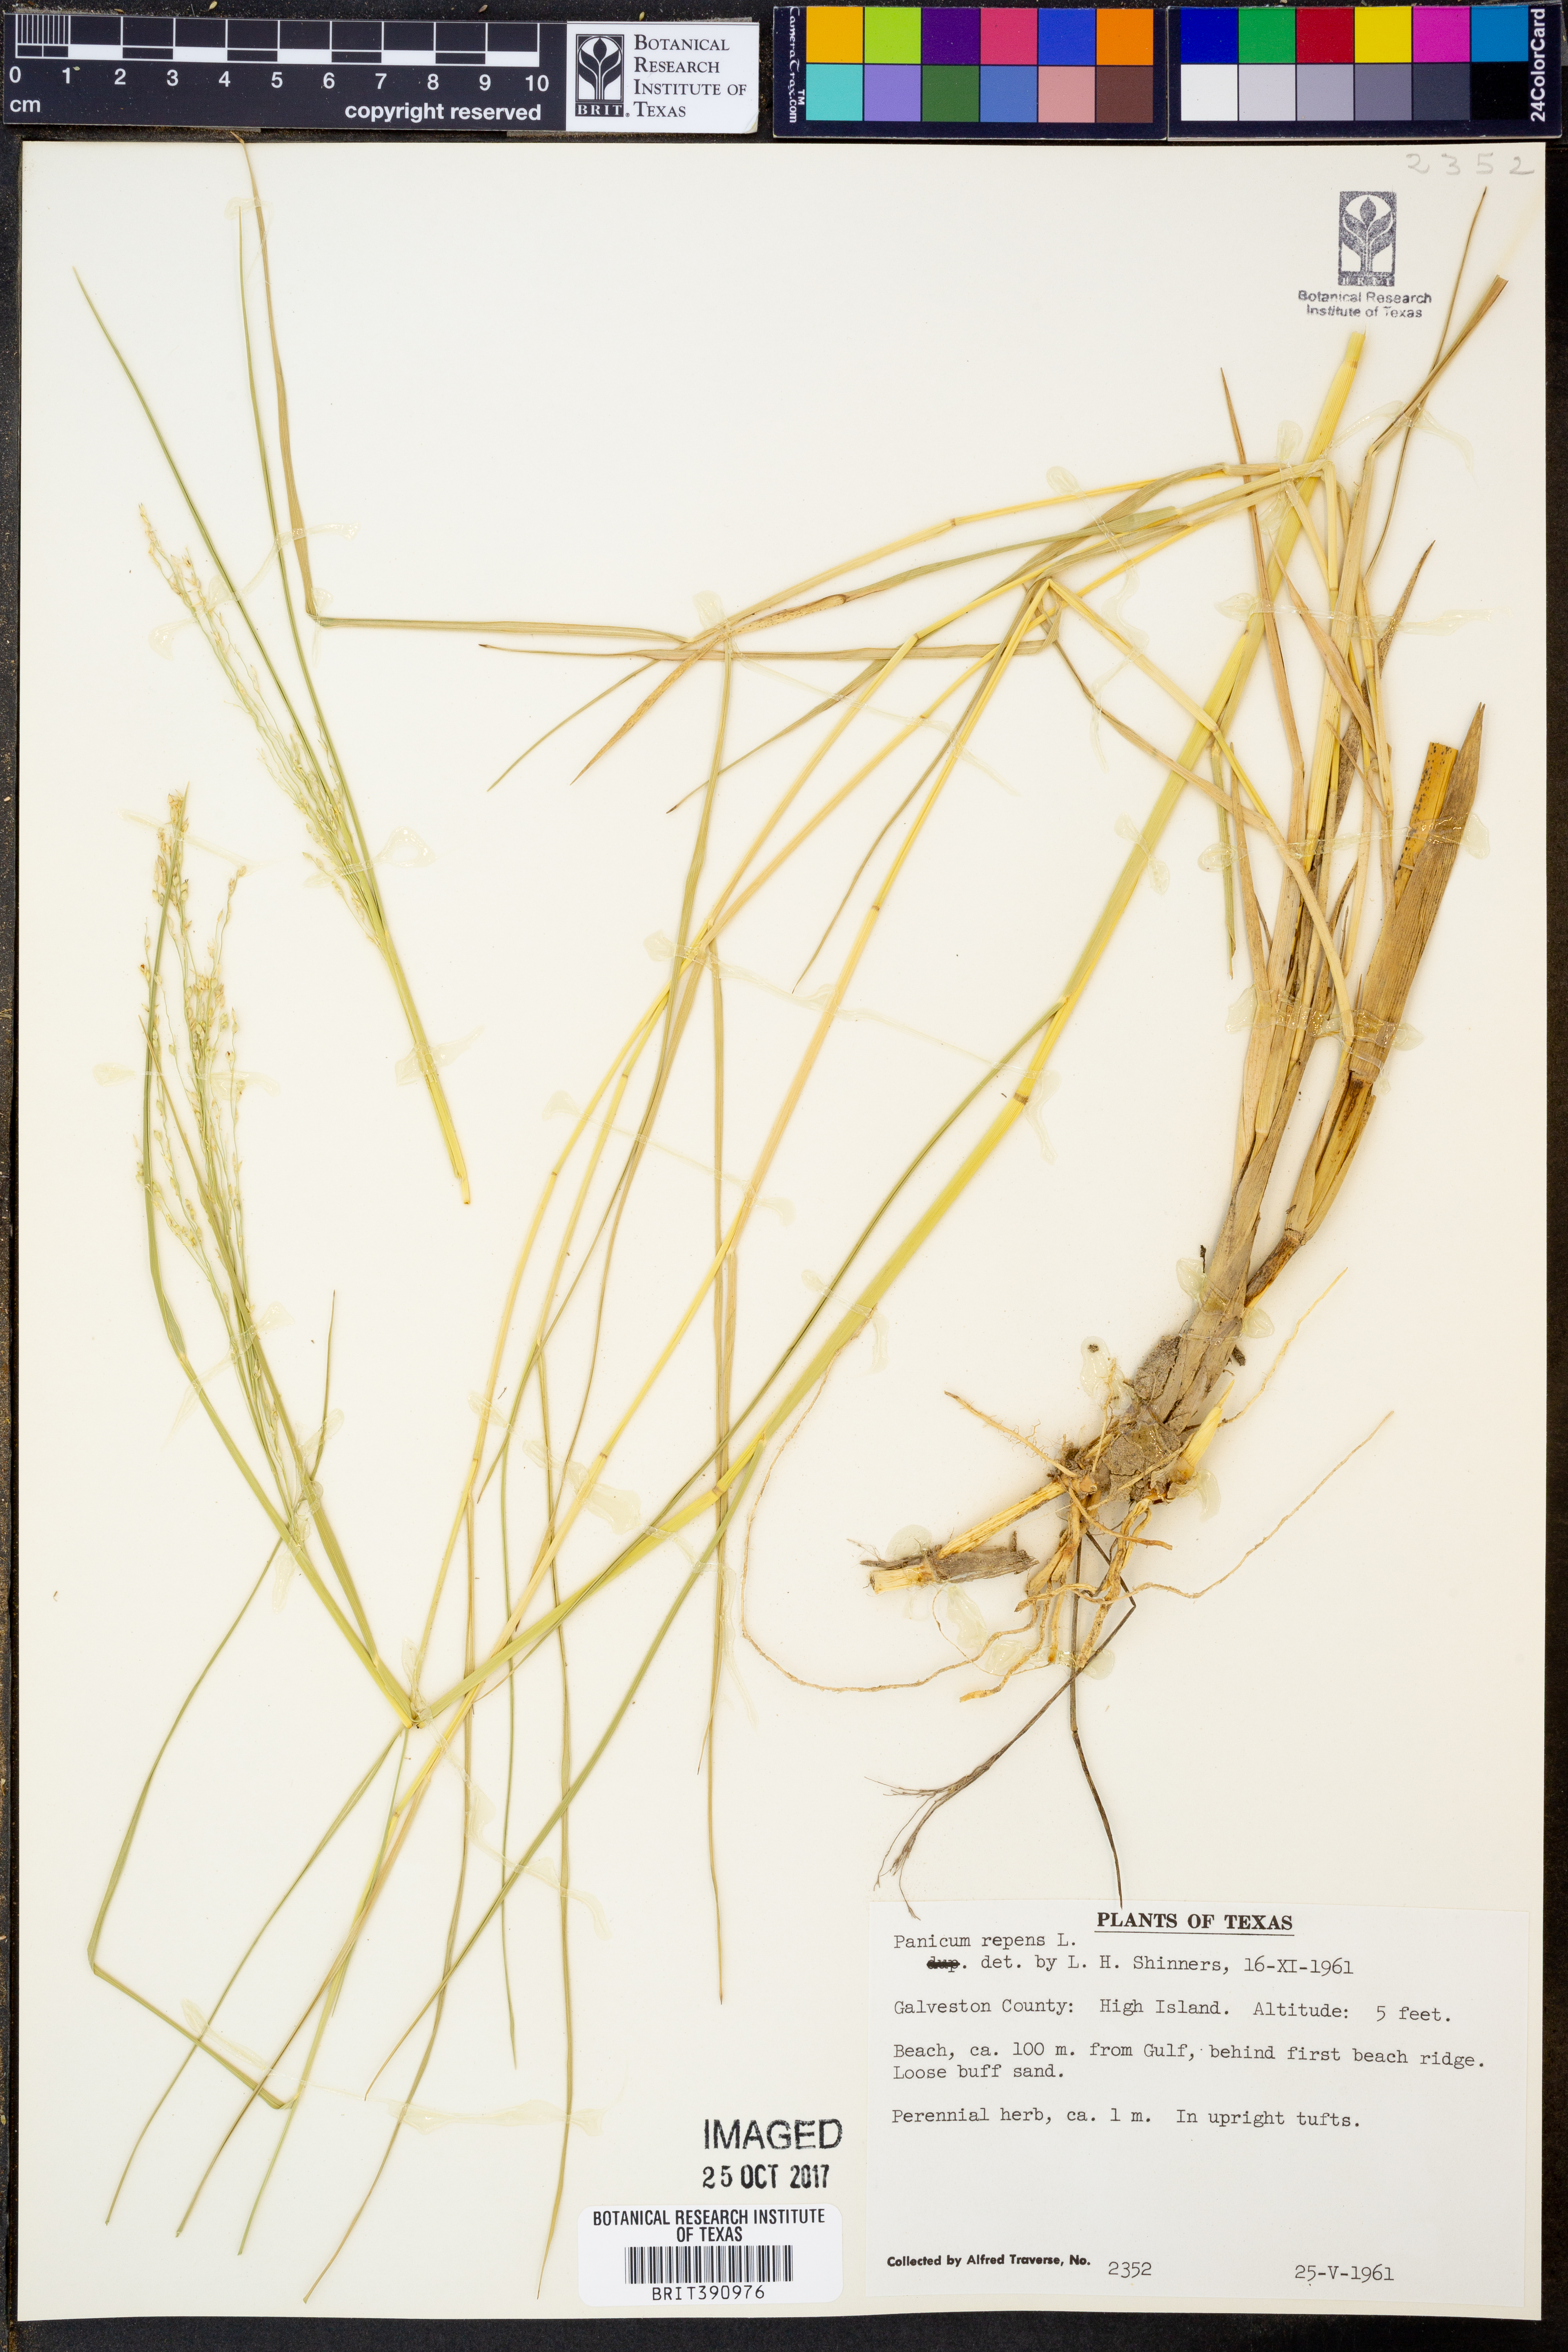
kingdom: Plantae
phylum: Tracheophyta
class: Liliopsida
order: Poales
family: Poaceae
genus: Panicum
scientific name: Panicum repens
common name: Torpedo grass
